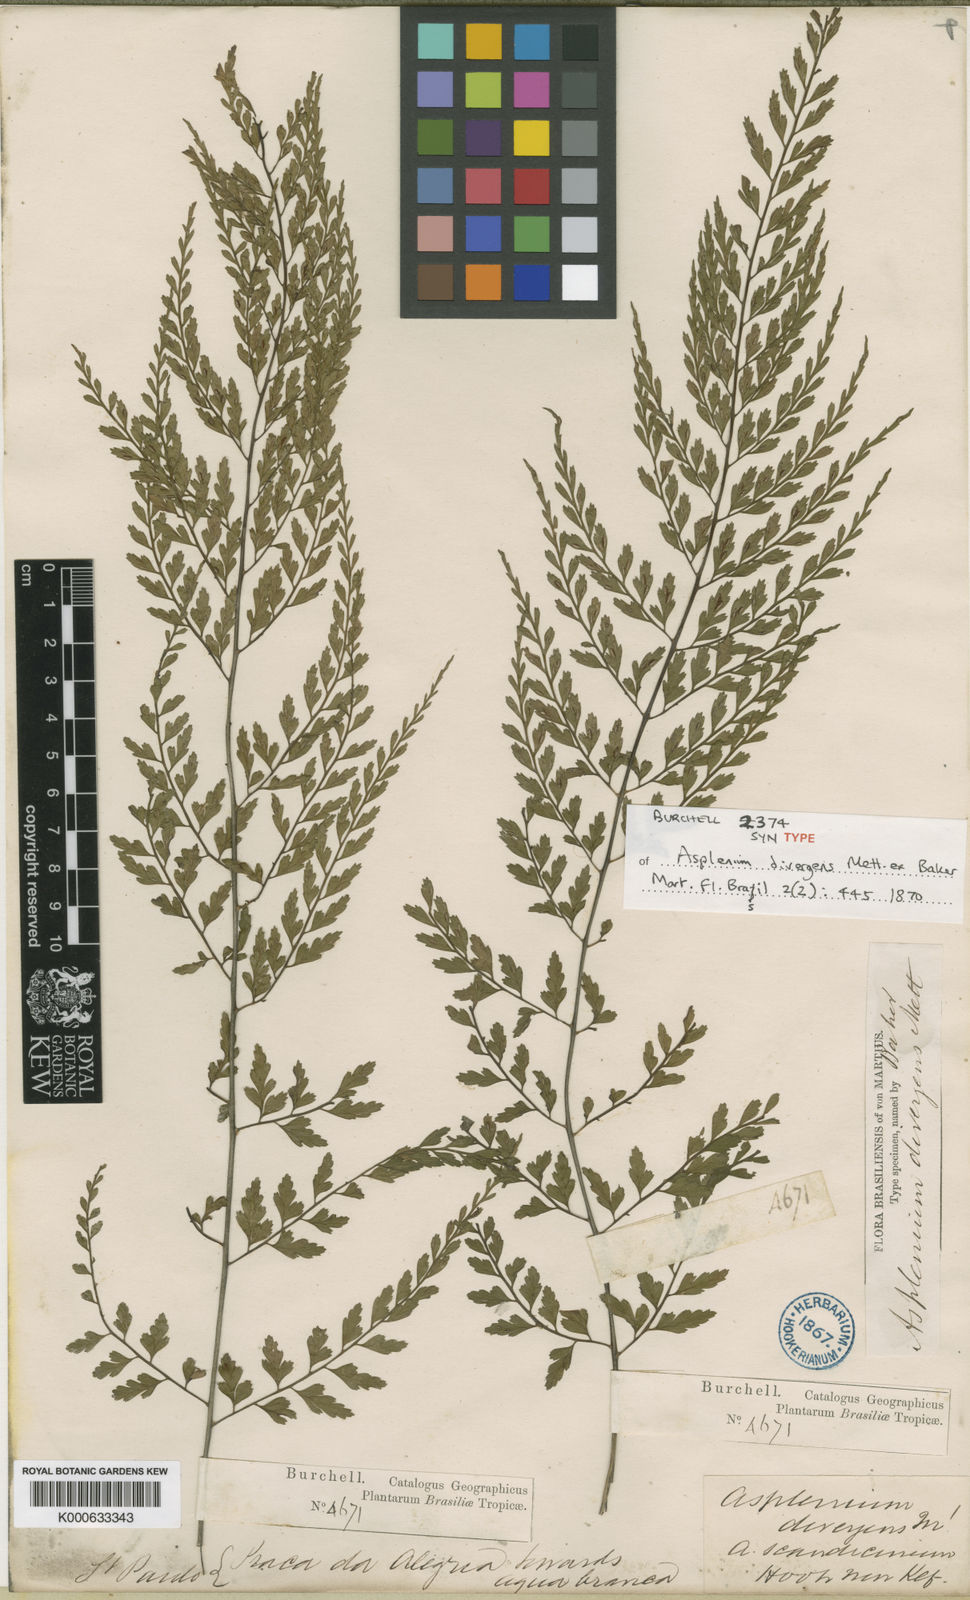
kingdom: Plantae
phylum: Tracheophyta
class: Polypodiopsida
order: Polypodiales
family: Aspleniaceae
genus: Asplenium
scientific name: Asplenium auritum
